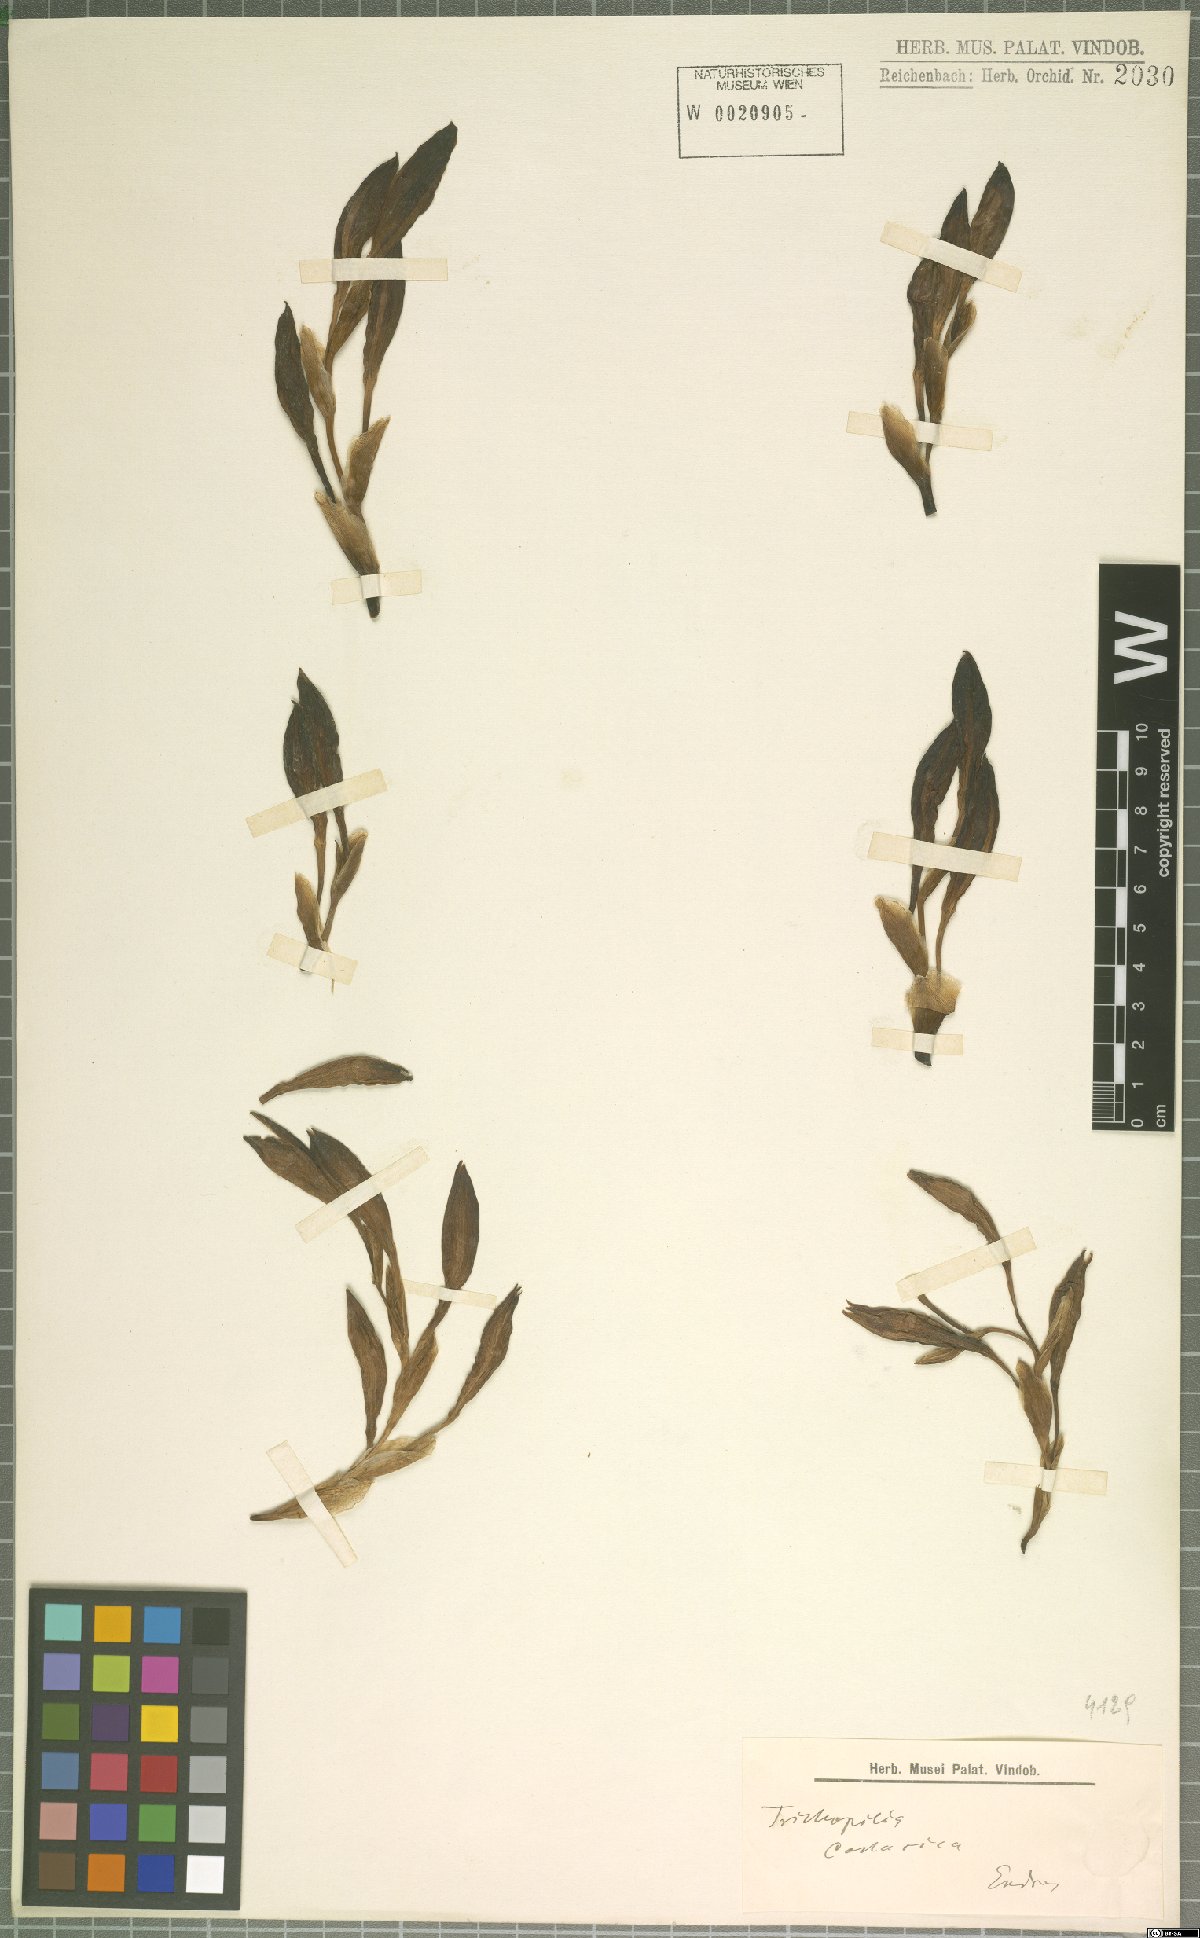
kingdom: Plantae
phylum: Tracheophyta
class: Liliopsida
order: Asparagales
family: Orchidaceae
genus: Trichopilia
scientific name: Trichopilia
